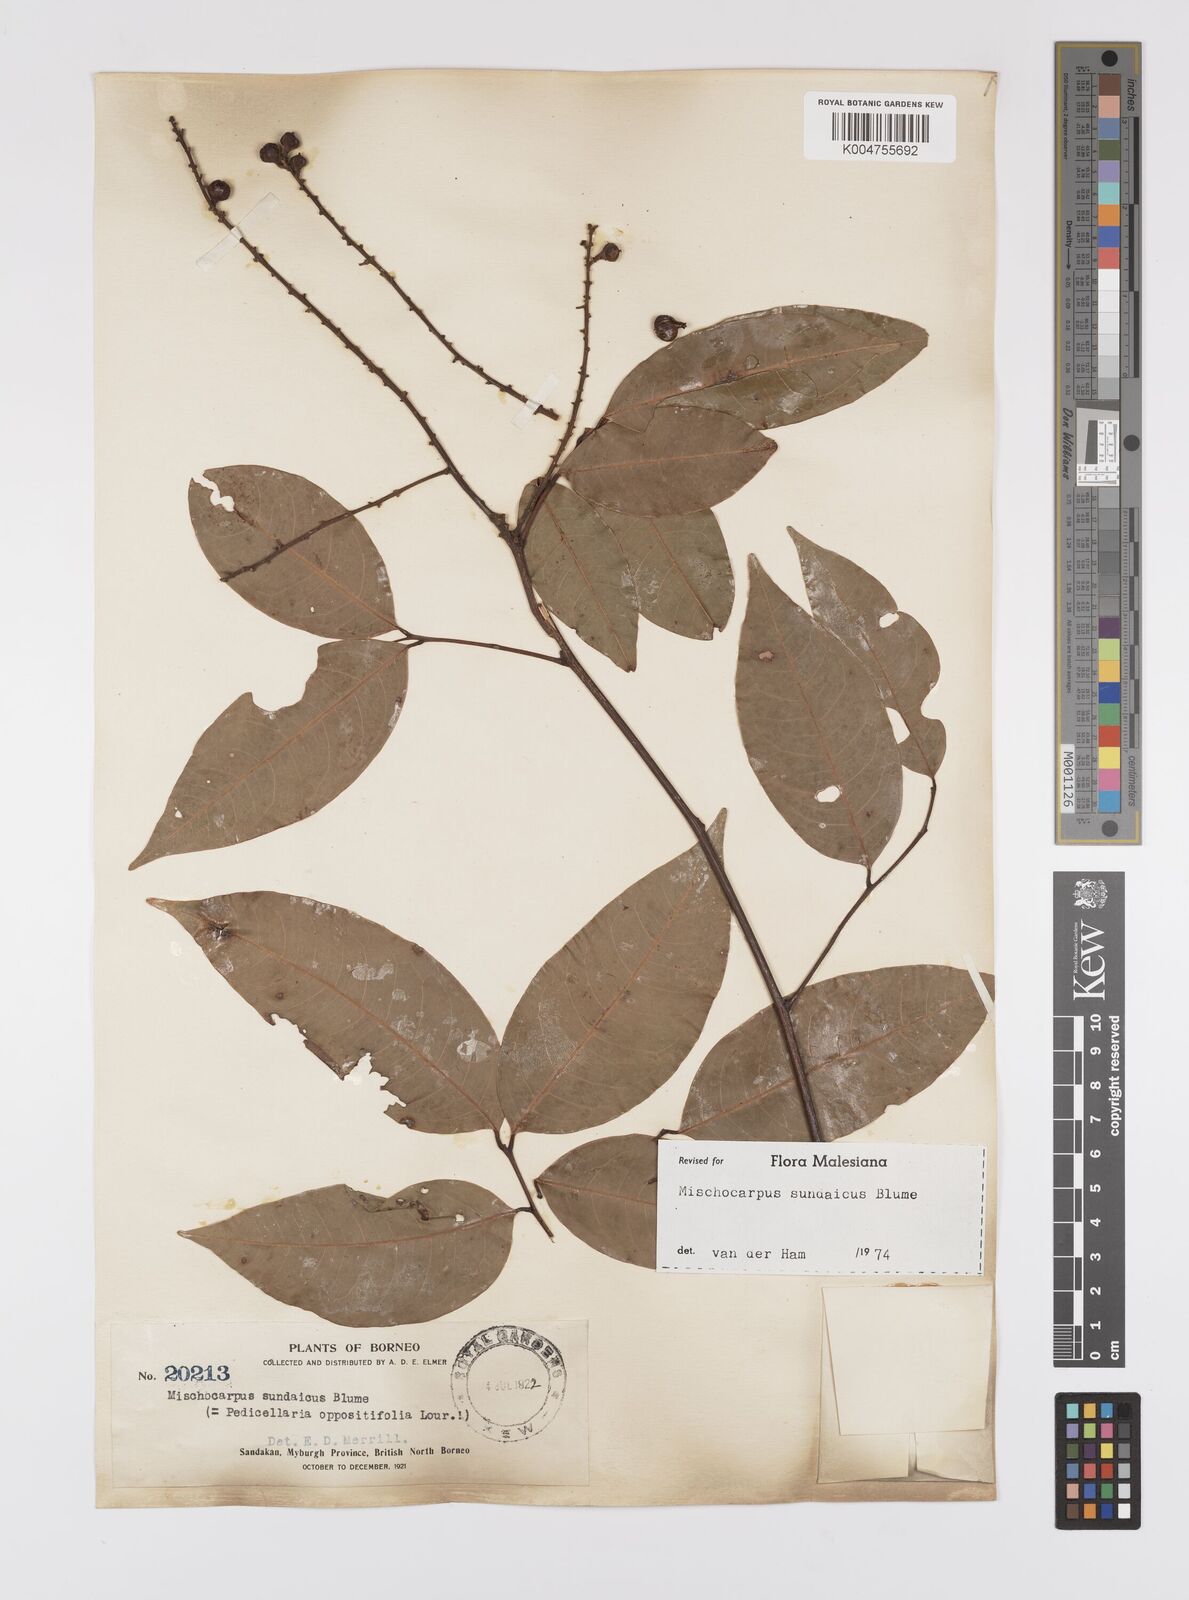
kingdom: Plantae
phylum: Tracheophyta
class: Magnoliopsida
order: Sapindales
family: Sapindaceae
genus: Mischocarpus
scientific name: Mischocarpus sundaicus
